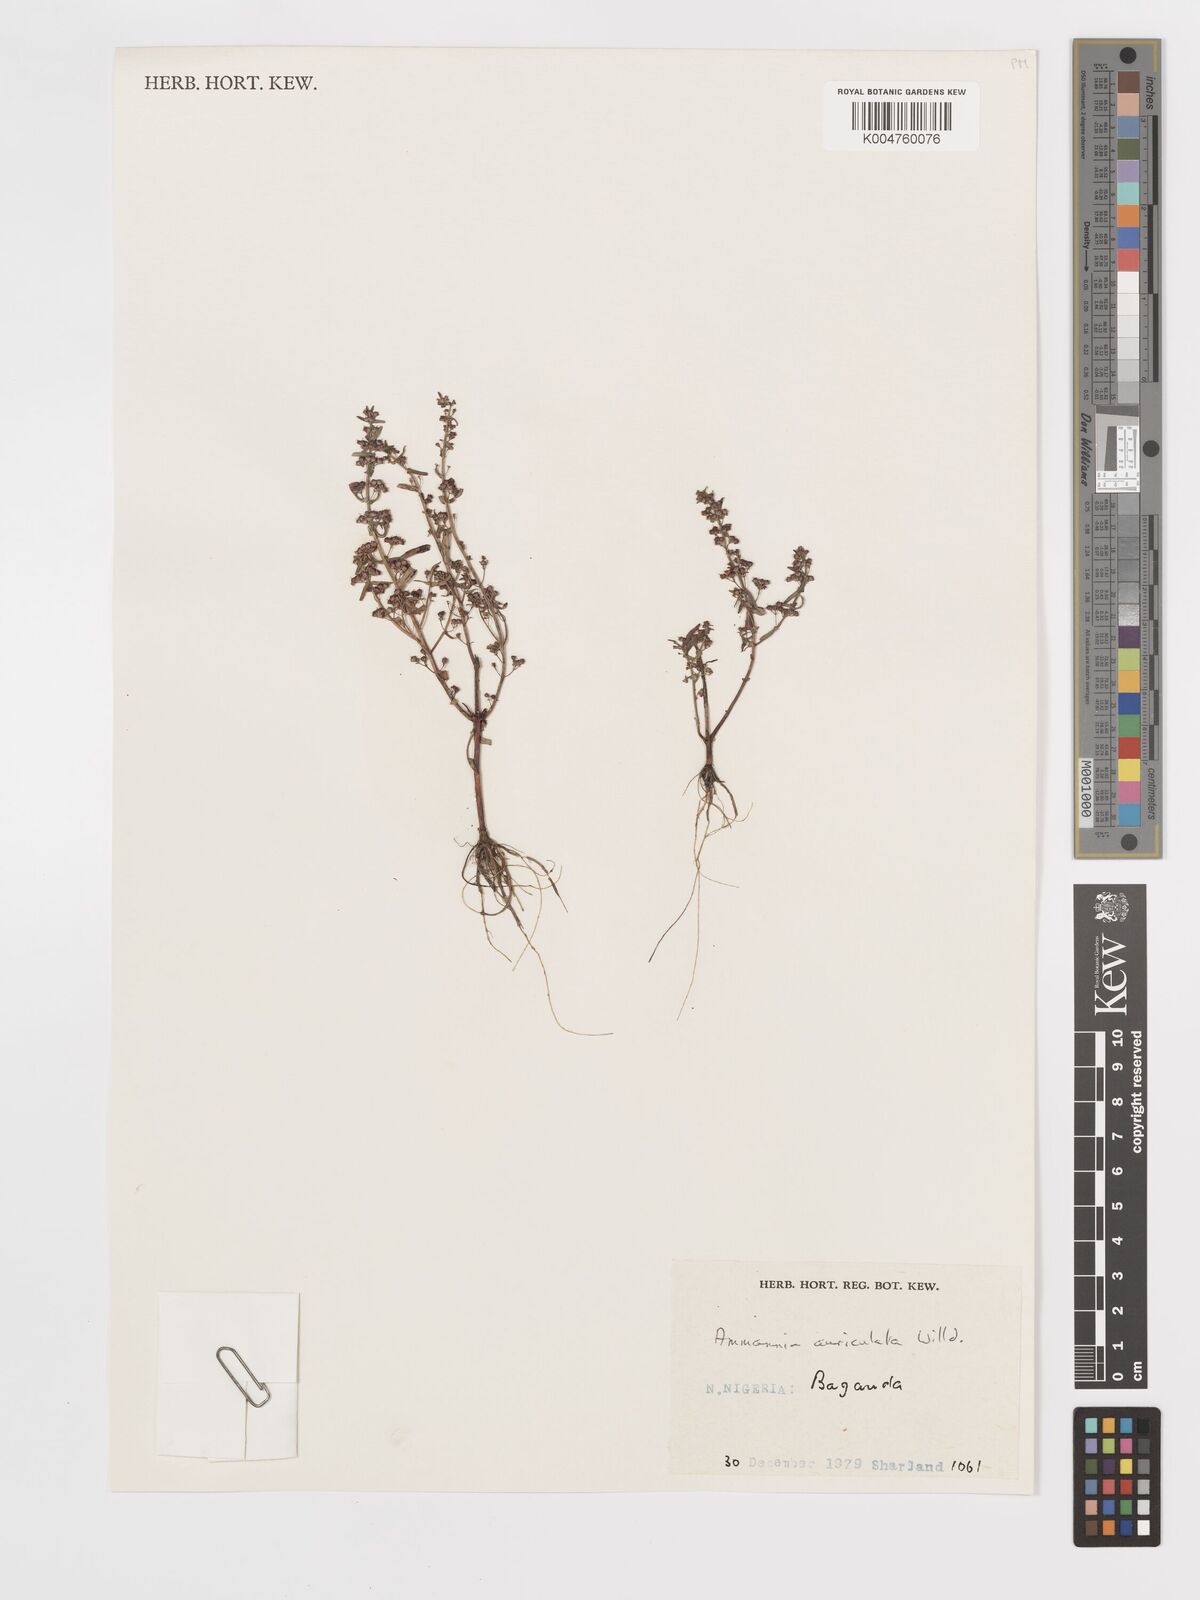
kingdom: Plantae
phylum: Tracheophyta
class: Magnoliopsida
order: Myrtales
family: Lythraceae
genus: Ammannia
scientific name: Ammannia auriculata
